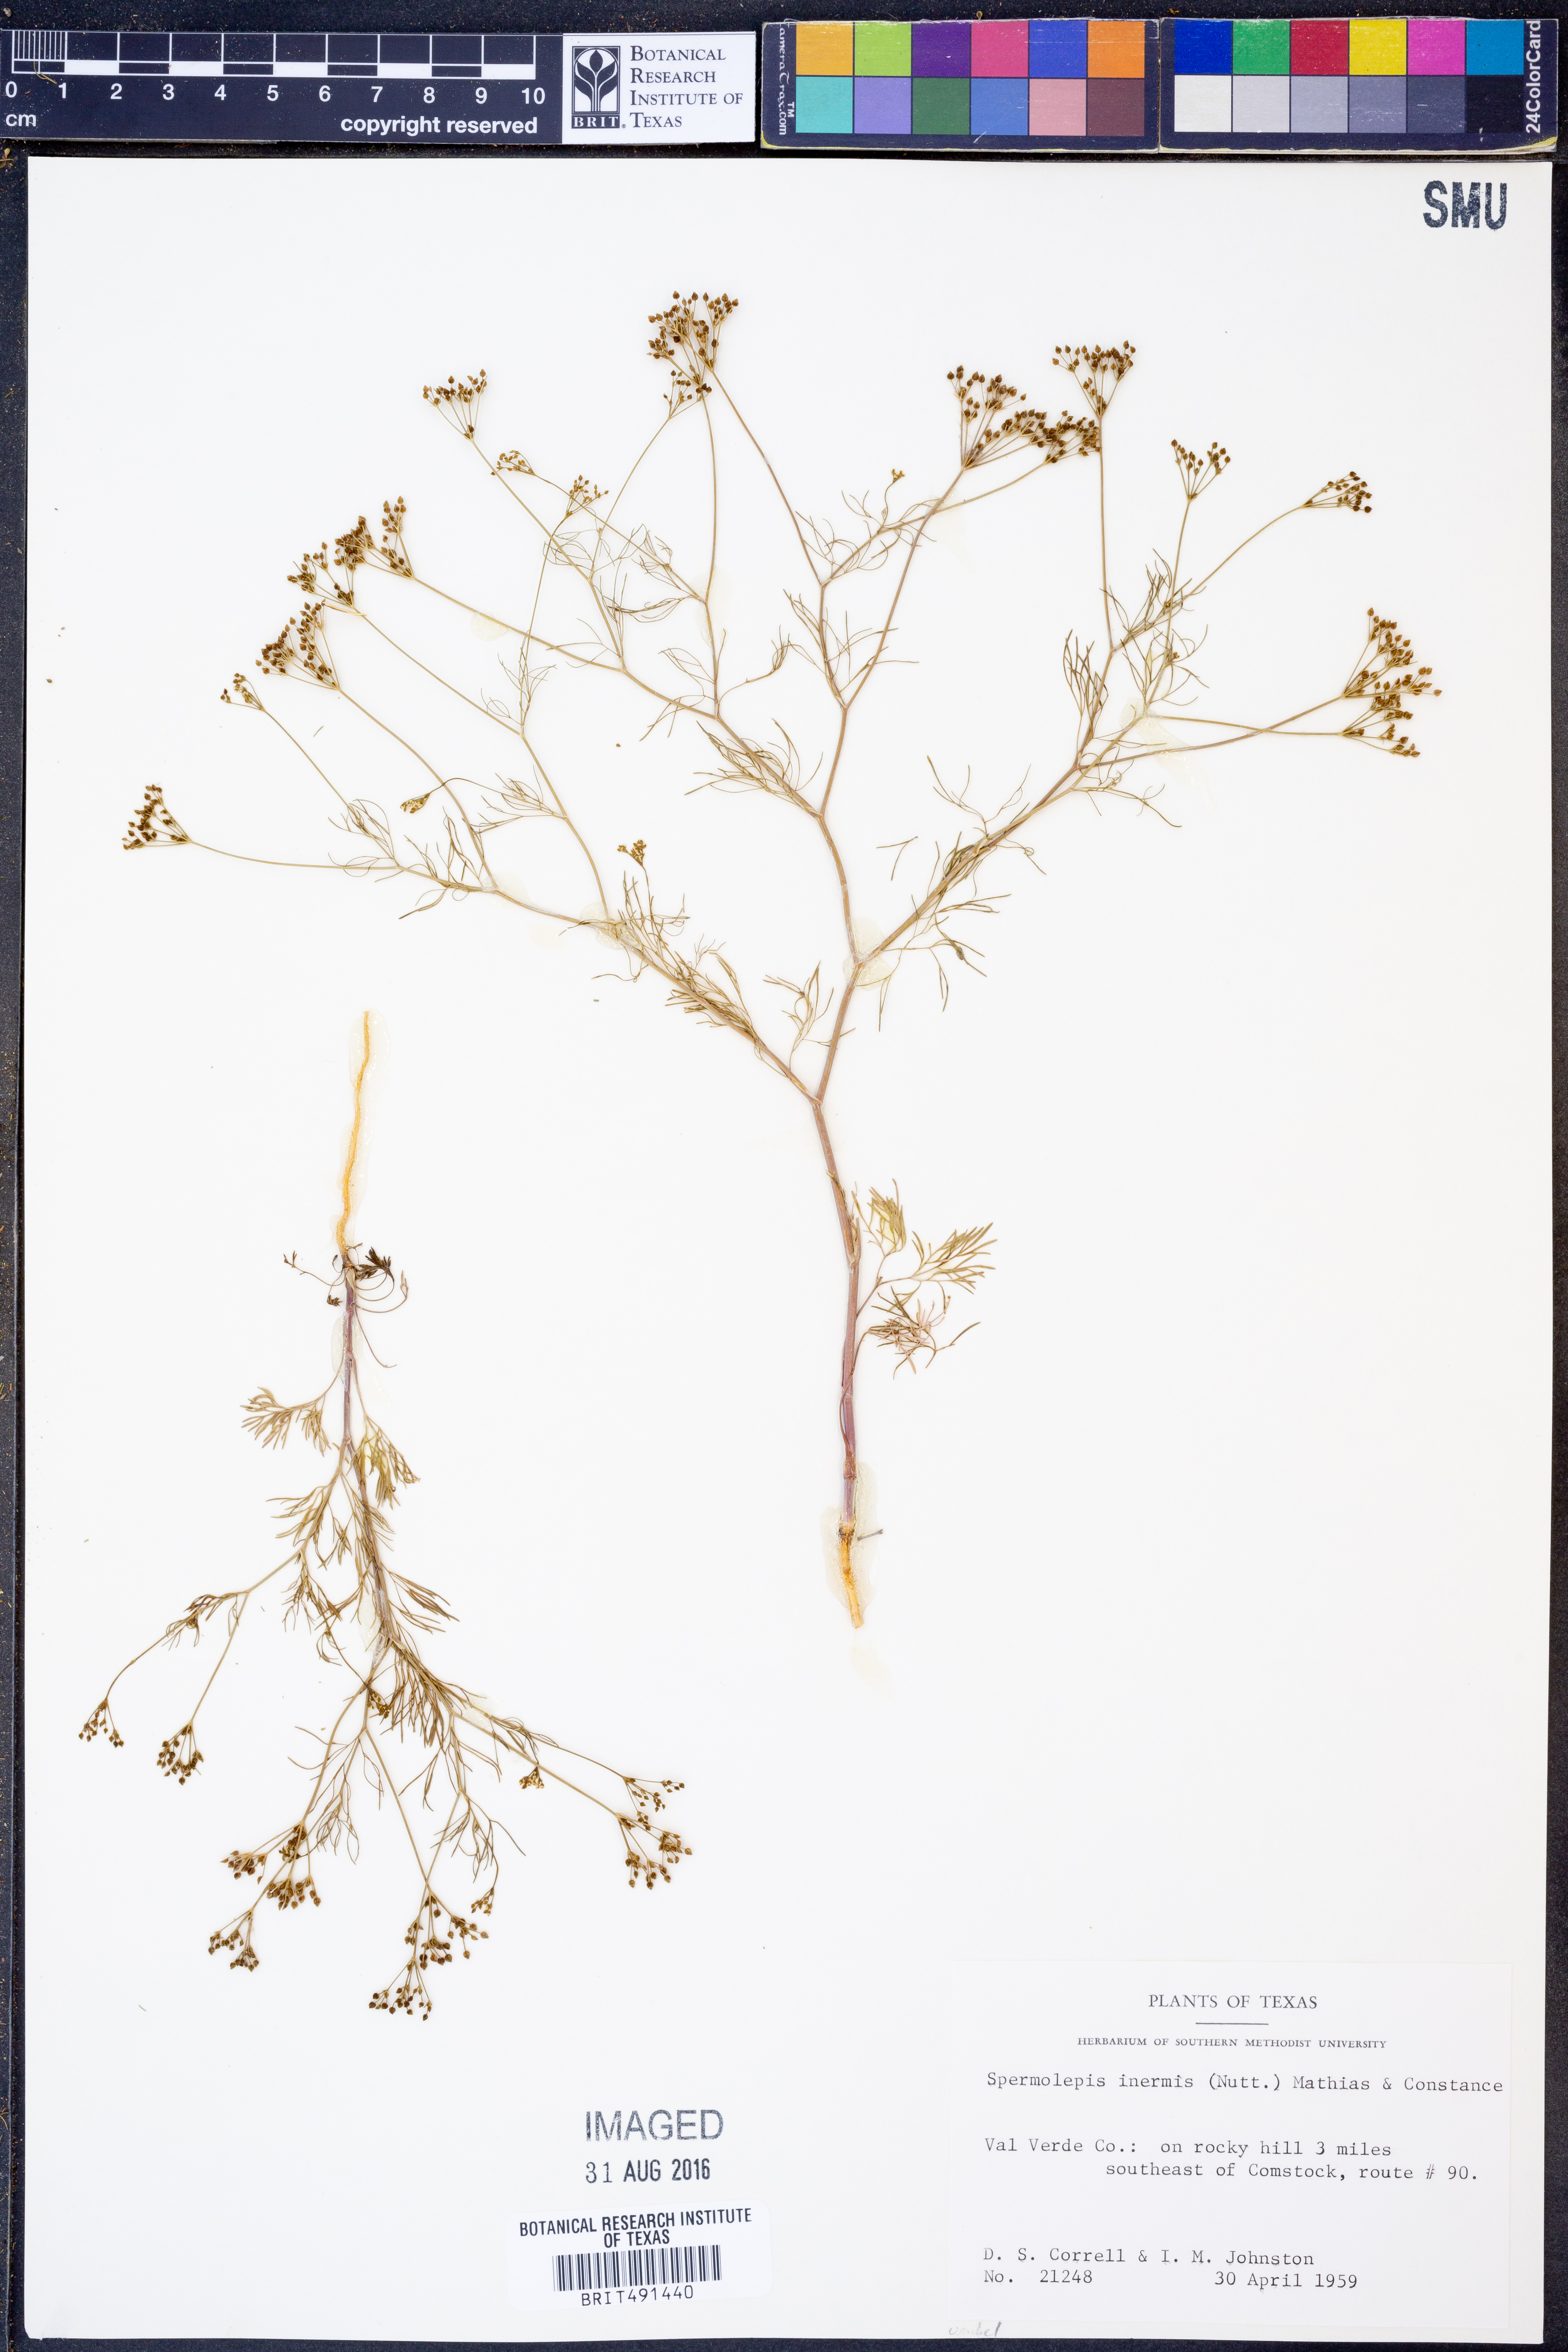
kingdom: Plantae
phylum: Tracheophyta
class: Magnoliopsida
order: Apiales
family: Apiaceae
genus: Spermolepis
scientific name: Spermolepis inermis
